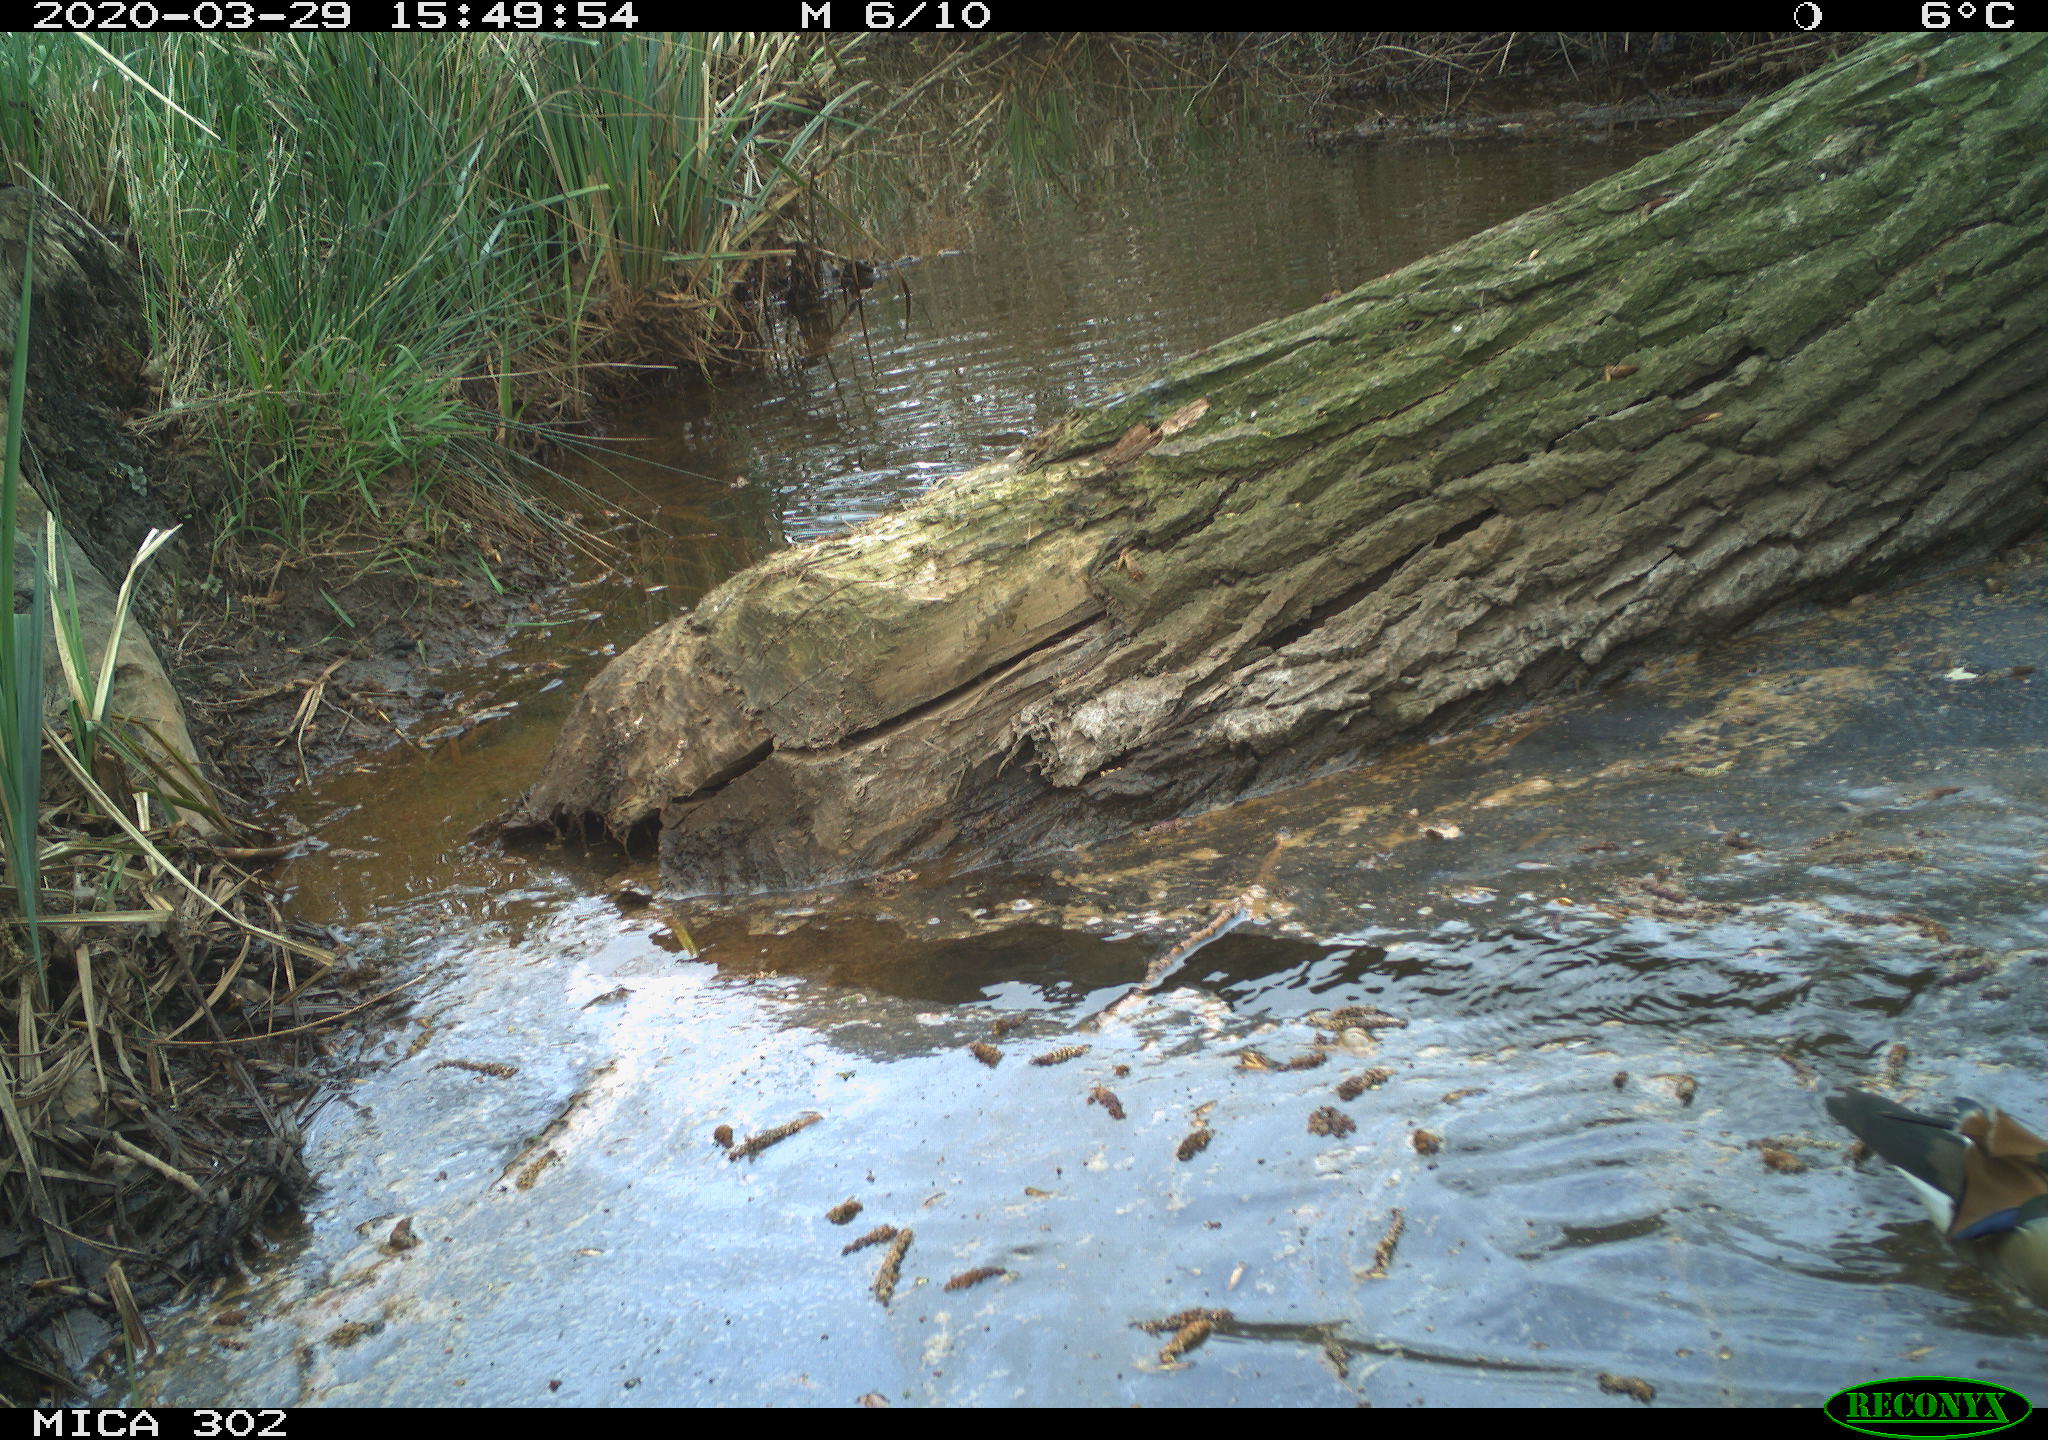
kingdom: Animalia
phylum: Chordata
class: Aves
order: Anseriformes
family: Anatidae
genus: Aix
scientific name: Aix galericulata
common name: Mandarin duck
